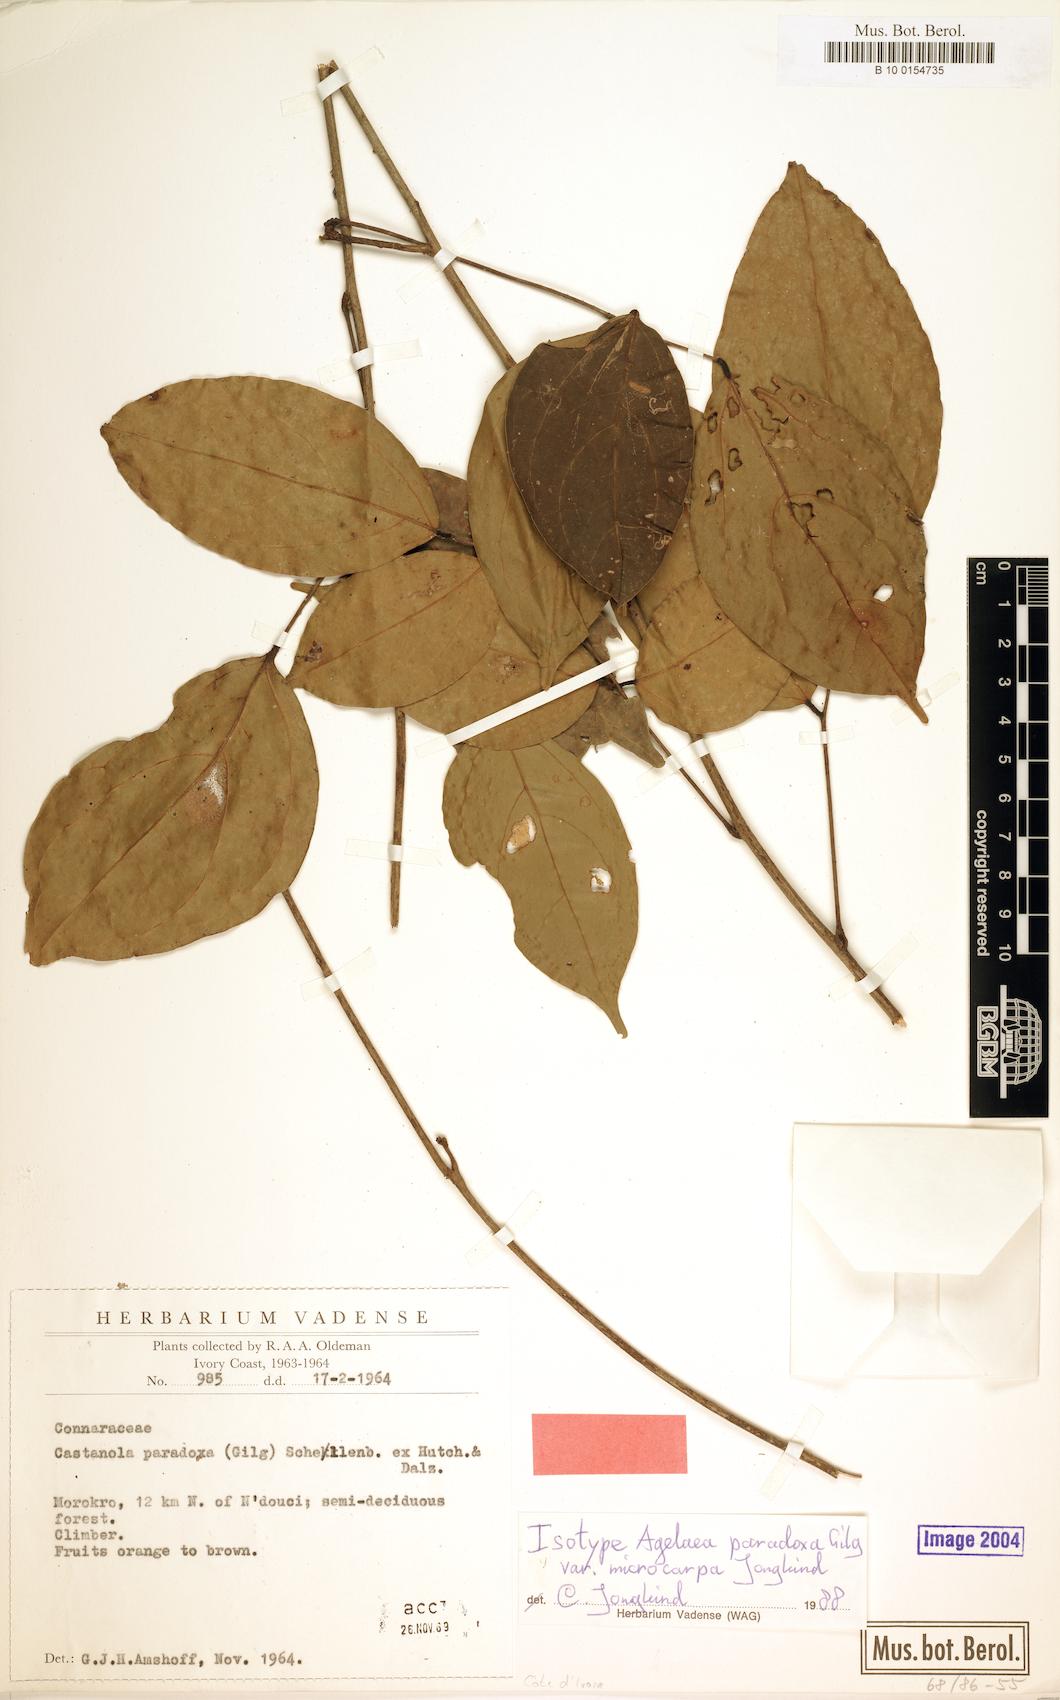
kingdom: Plantae
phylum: Tracheophyta
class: Magnoliopsida
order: Oxalidales
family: Connaraceae
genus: Castanola
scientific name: Castanola paradoxa
